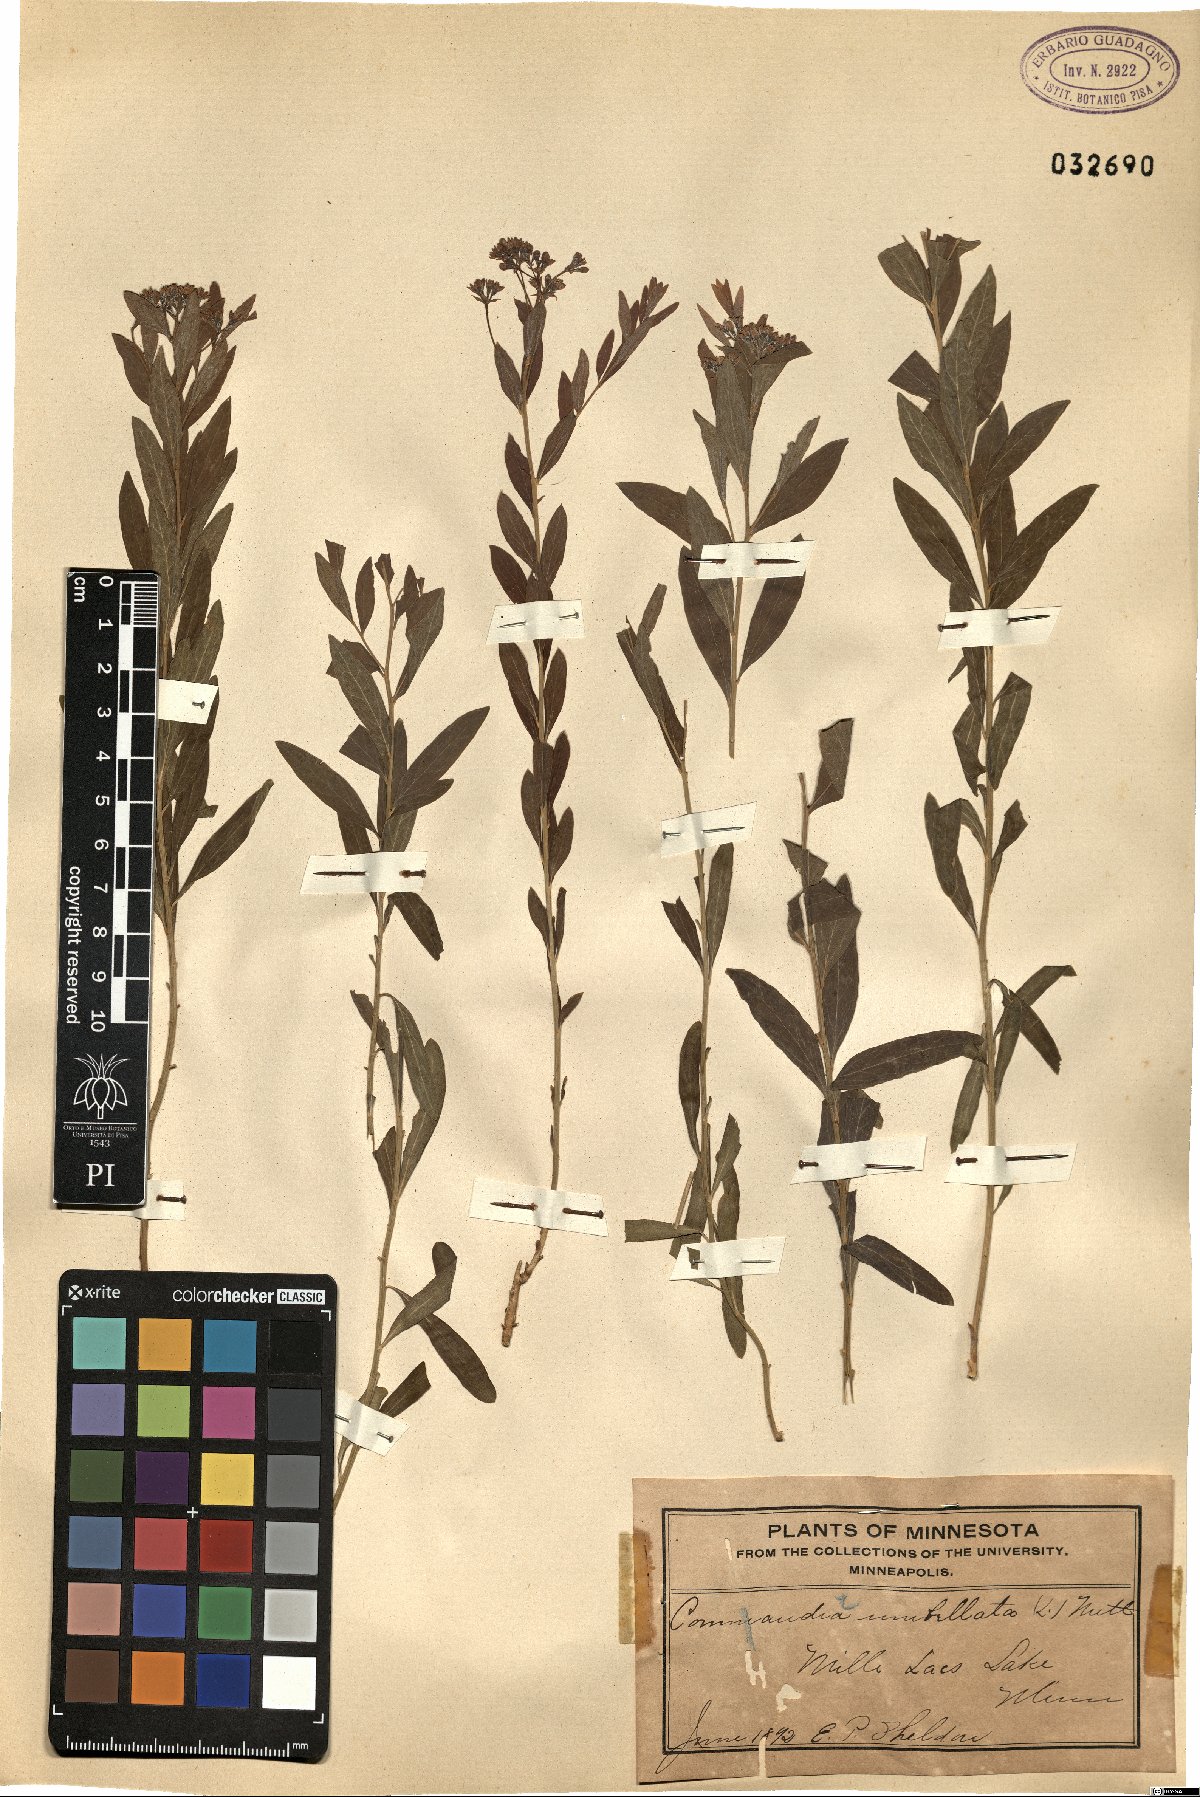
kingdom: Plantae
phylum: Tracheophyta
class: Magnoliopsida
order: Santalales
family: Comandraceae
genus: Comandra
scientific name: Comandra umbellata
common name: Bastard toadflax
